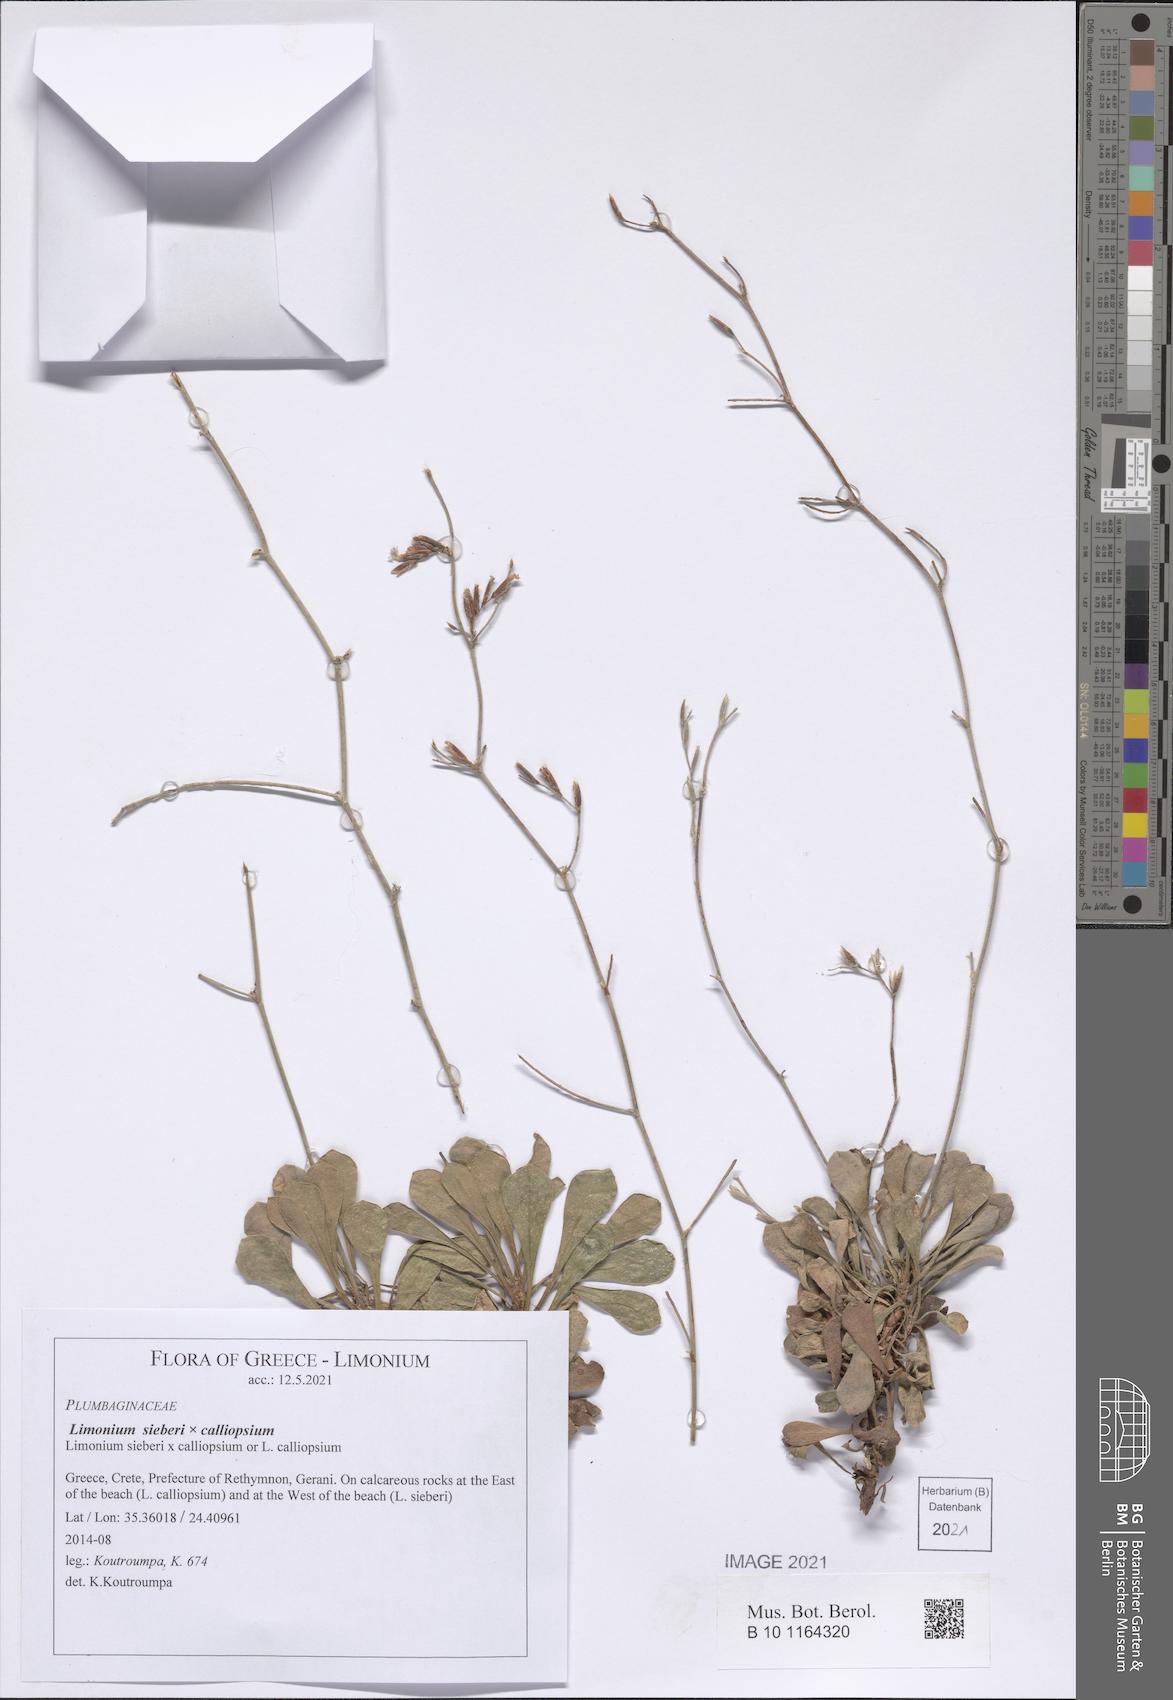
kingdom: Plantae
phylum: Tracheophyta
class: Magnoliopsida
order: Caryophyllales
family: Plumbaginaceae
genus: Limonium
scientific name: Limonium sieberi
